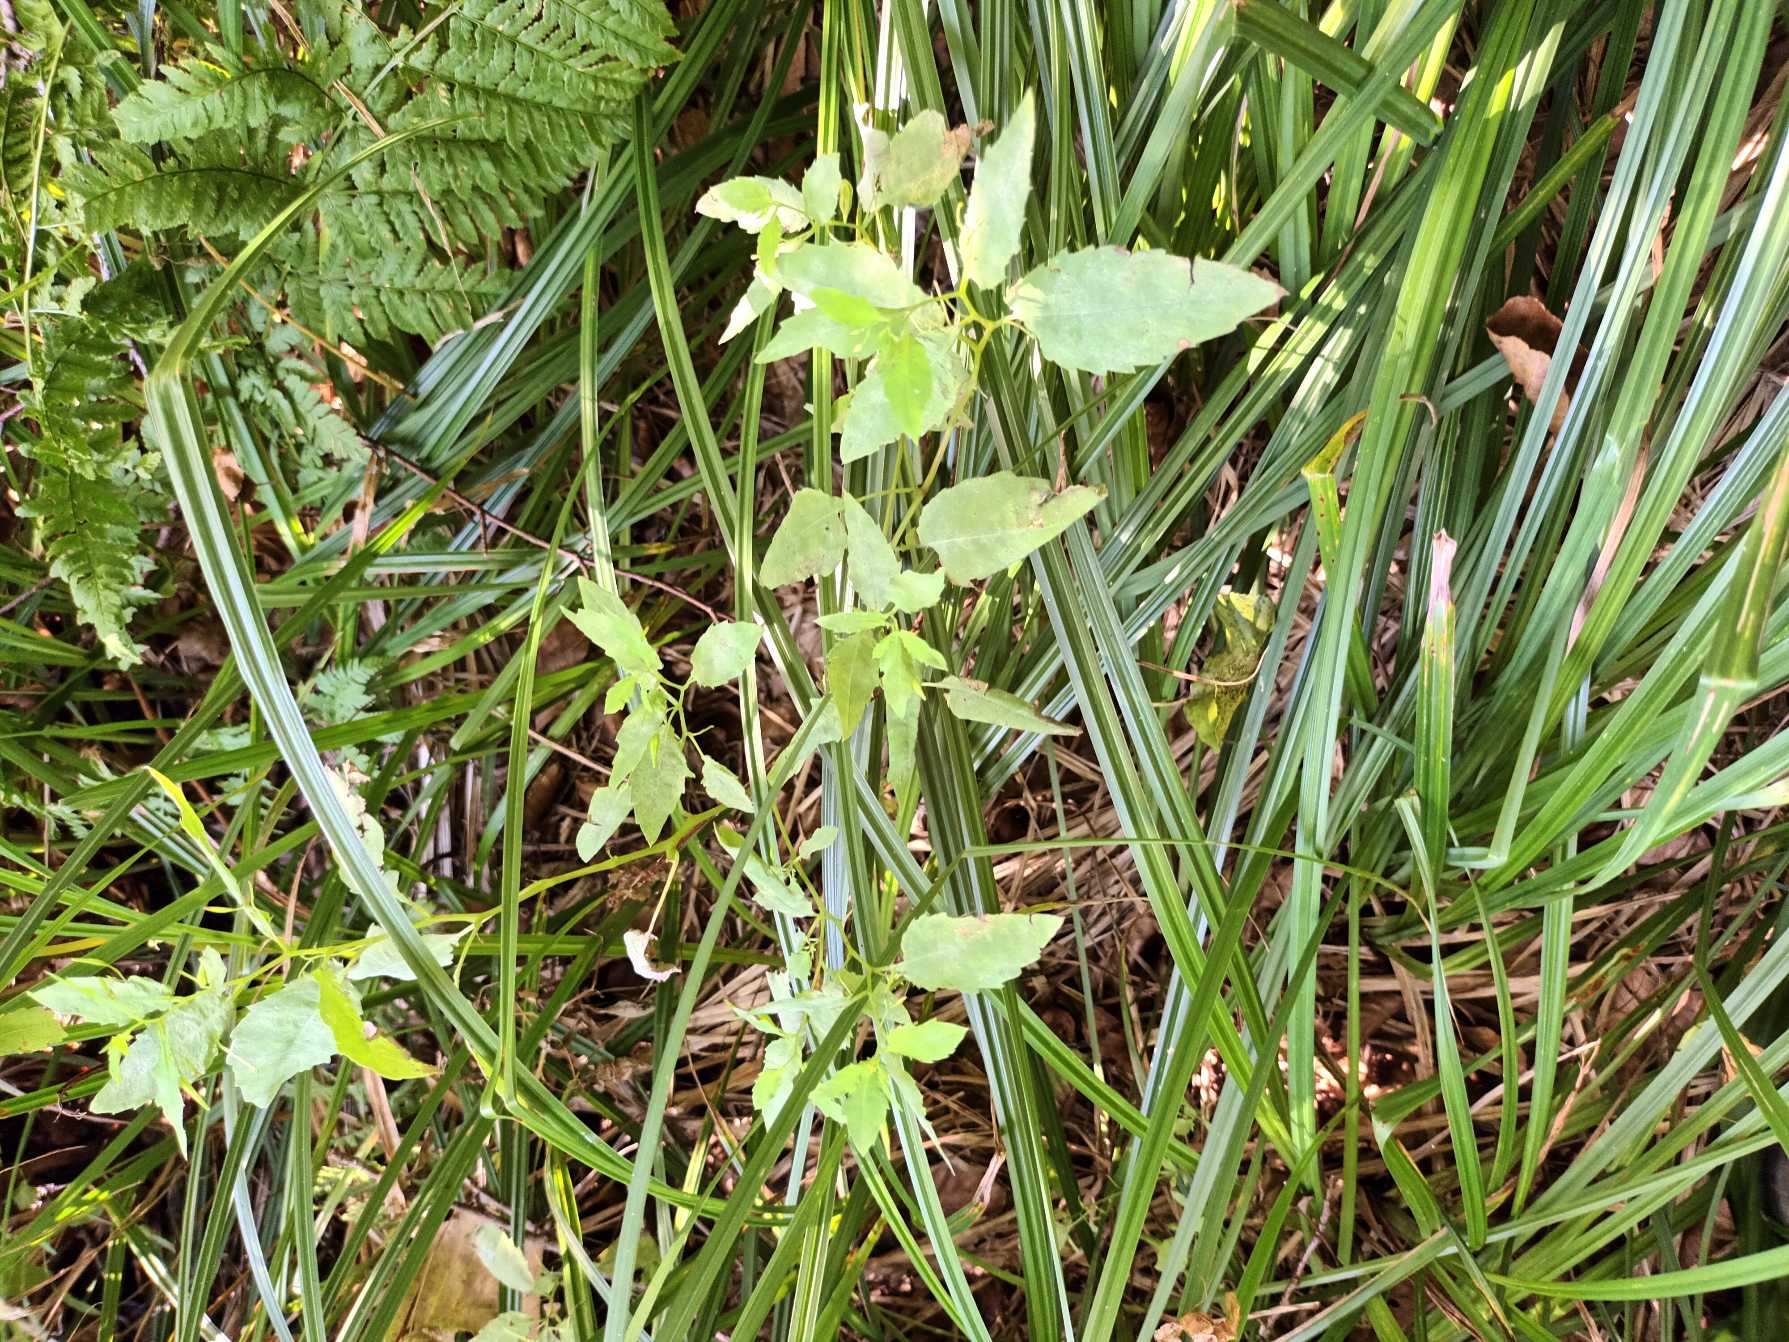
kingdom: Plantae
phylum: Tracheophyta
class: Magnoliopsida
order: Ericales
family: Balsaminaceae
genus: Impatiens
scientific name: Impatiens noli-tangere
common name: Spring-balsamin
